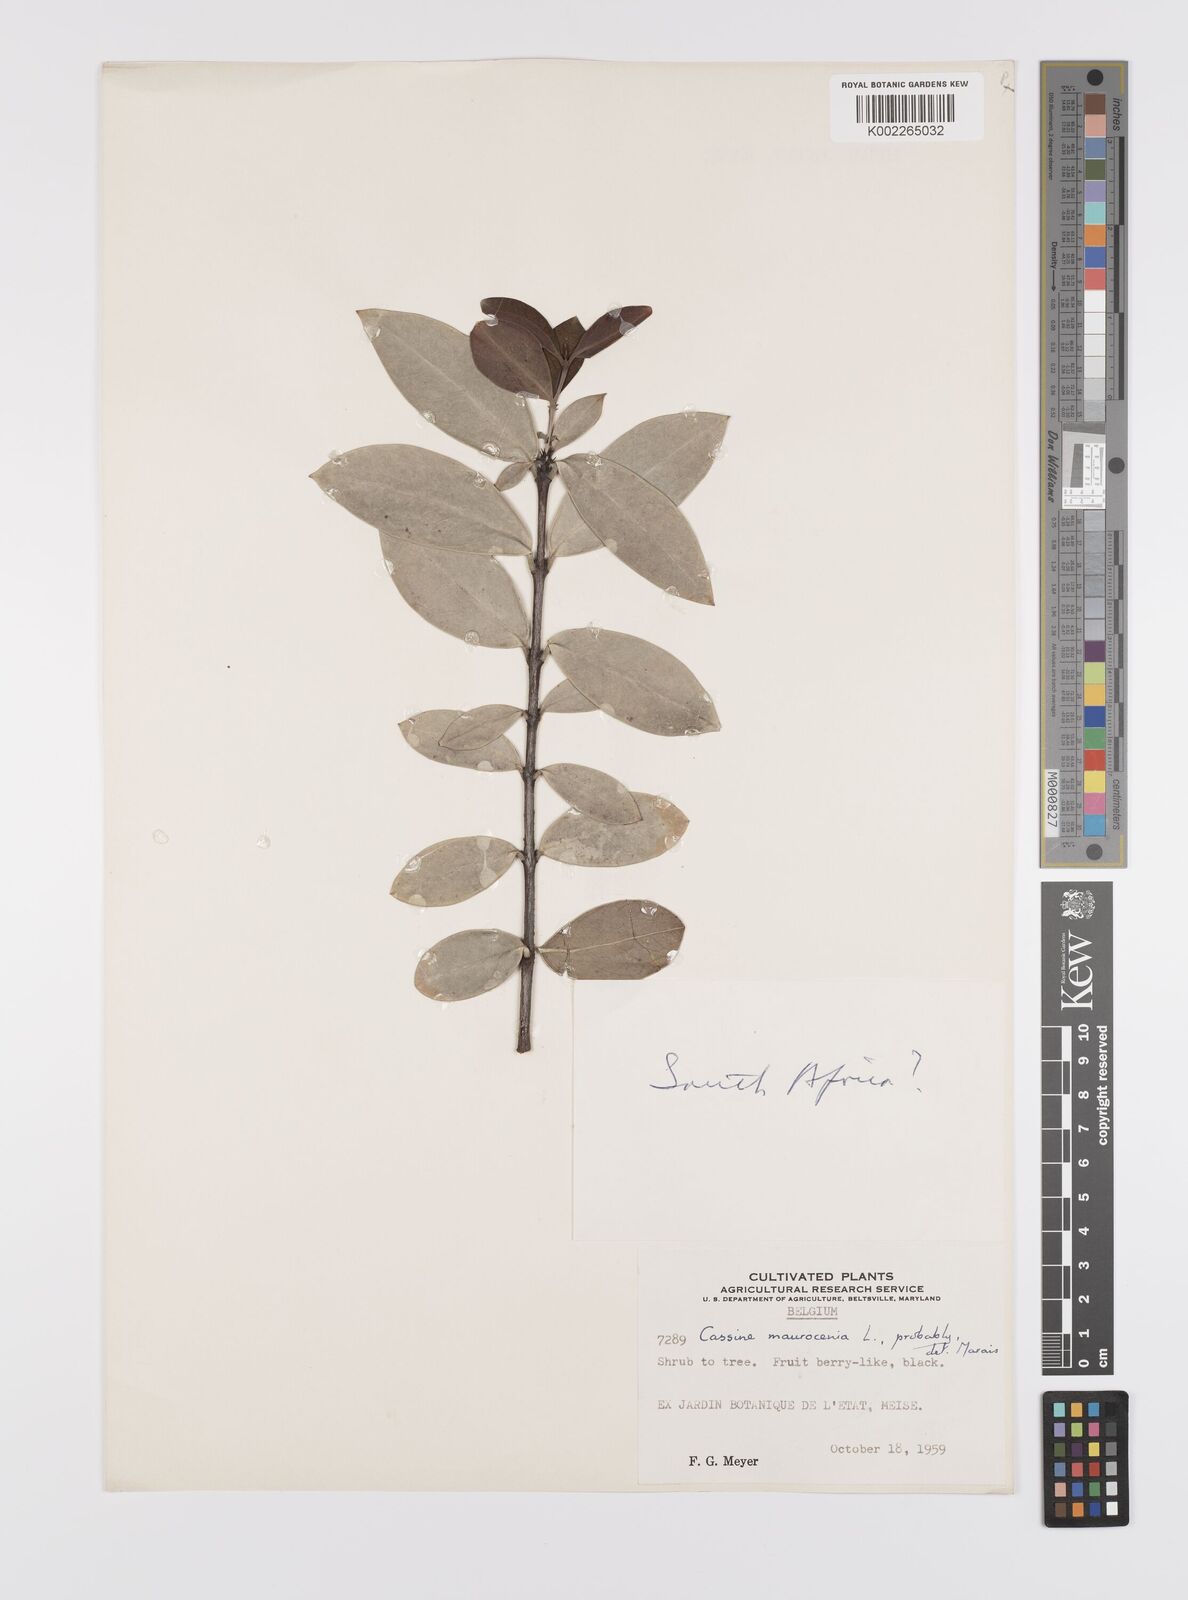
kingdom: Plantae
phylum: Tracheophyta
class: Magnoliopsida
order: Celastrales
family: Celastraceae
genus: Maurocenia
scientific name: Maurocenia frangula
